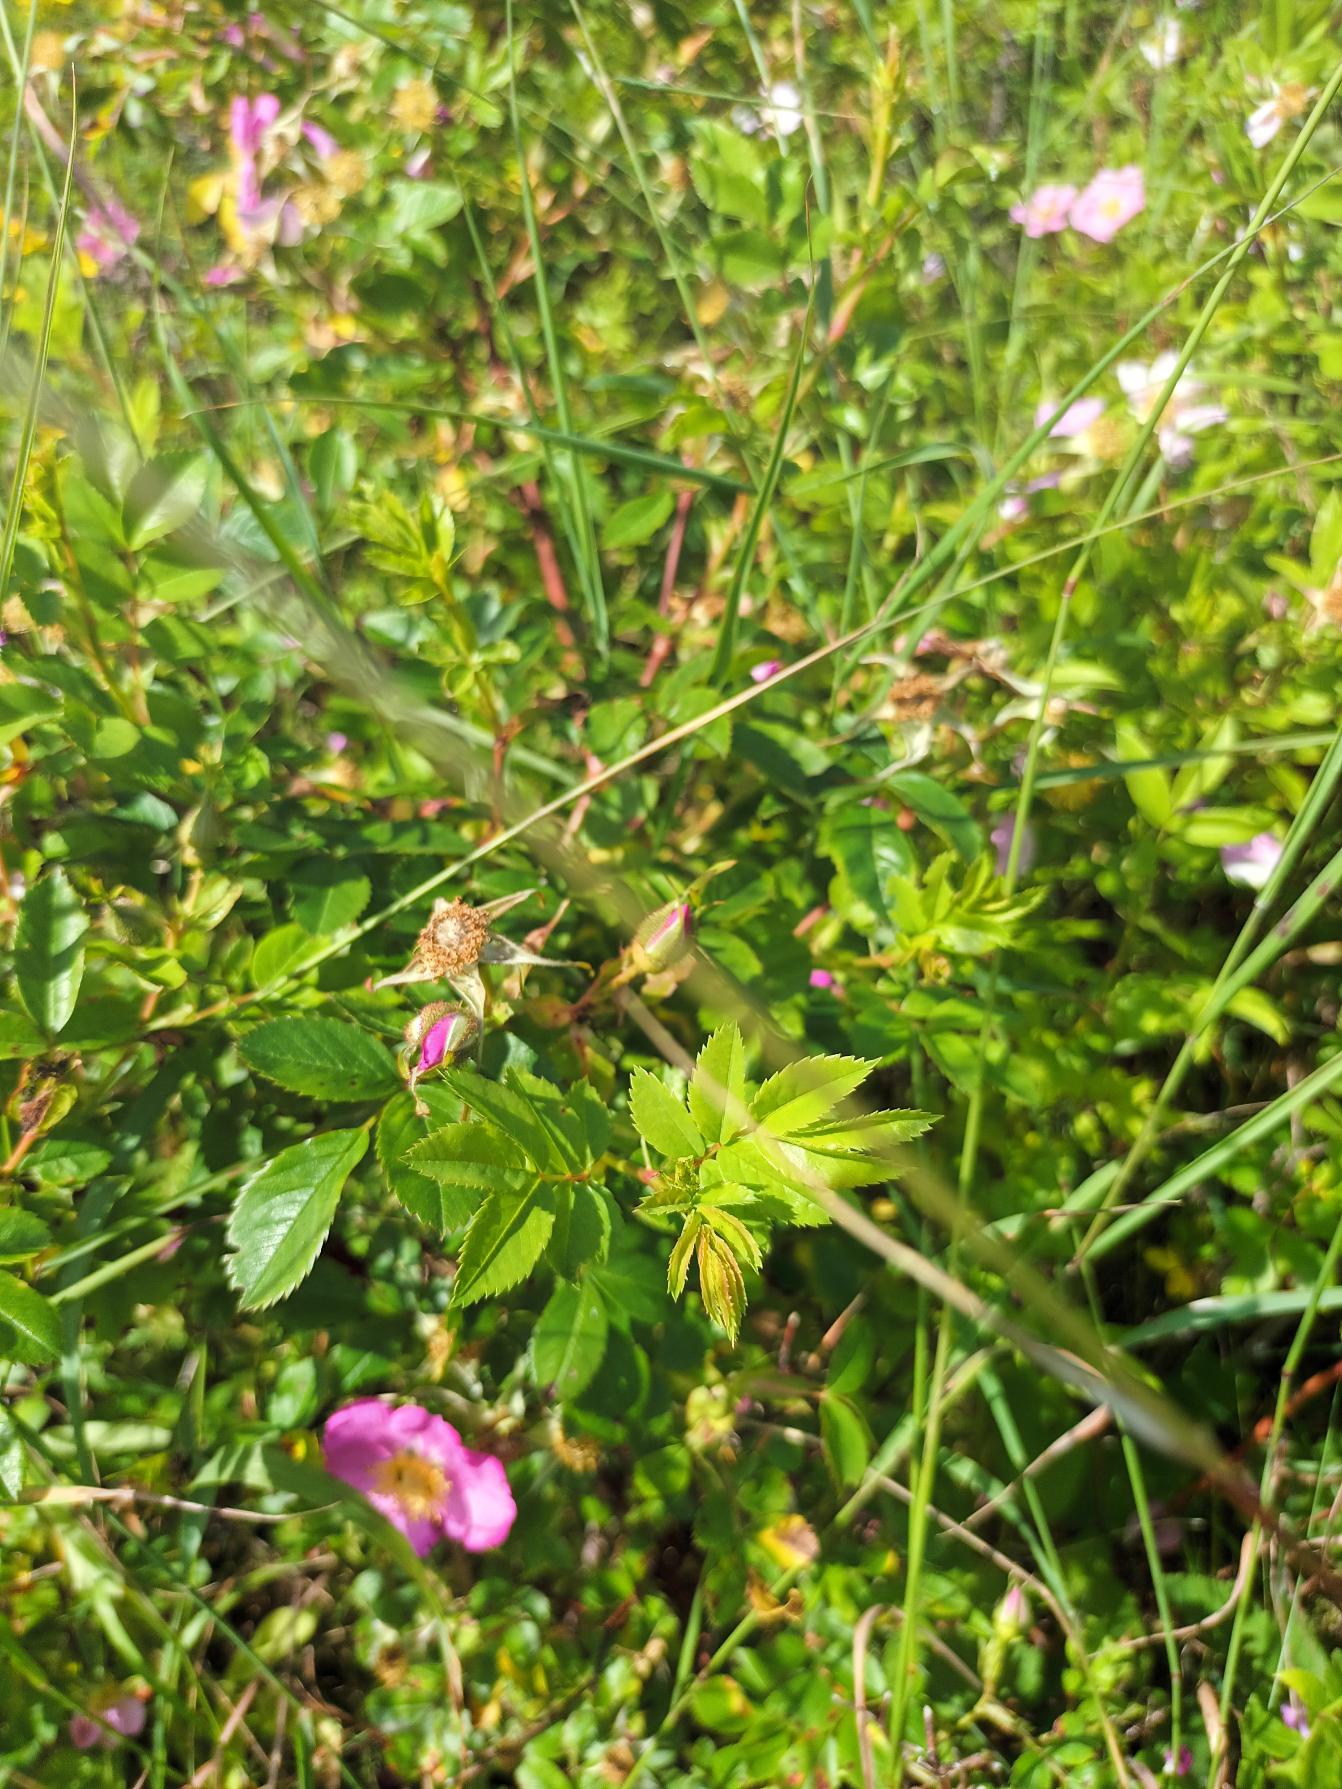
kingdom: Plantae
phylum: Tracheophyta
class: Magnoliopsida
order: Rosales
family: Rosaceae
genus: Rosa
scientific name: Rosa carolina
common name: Glansbladet rose
